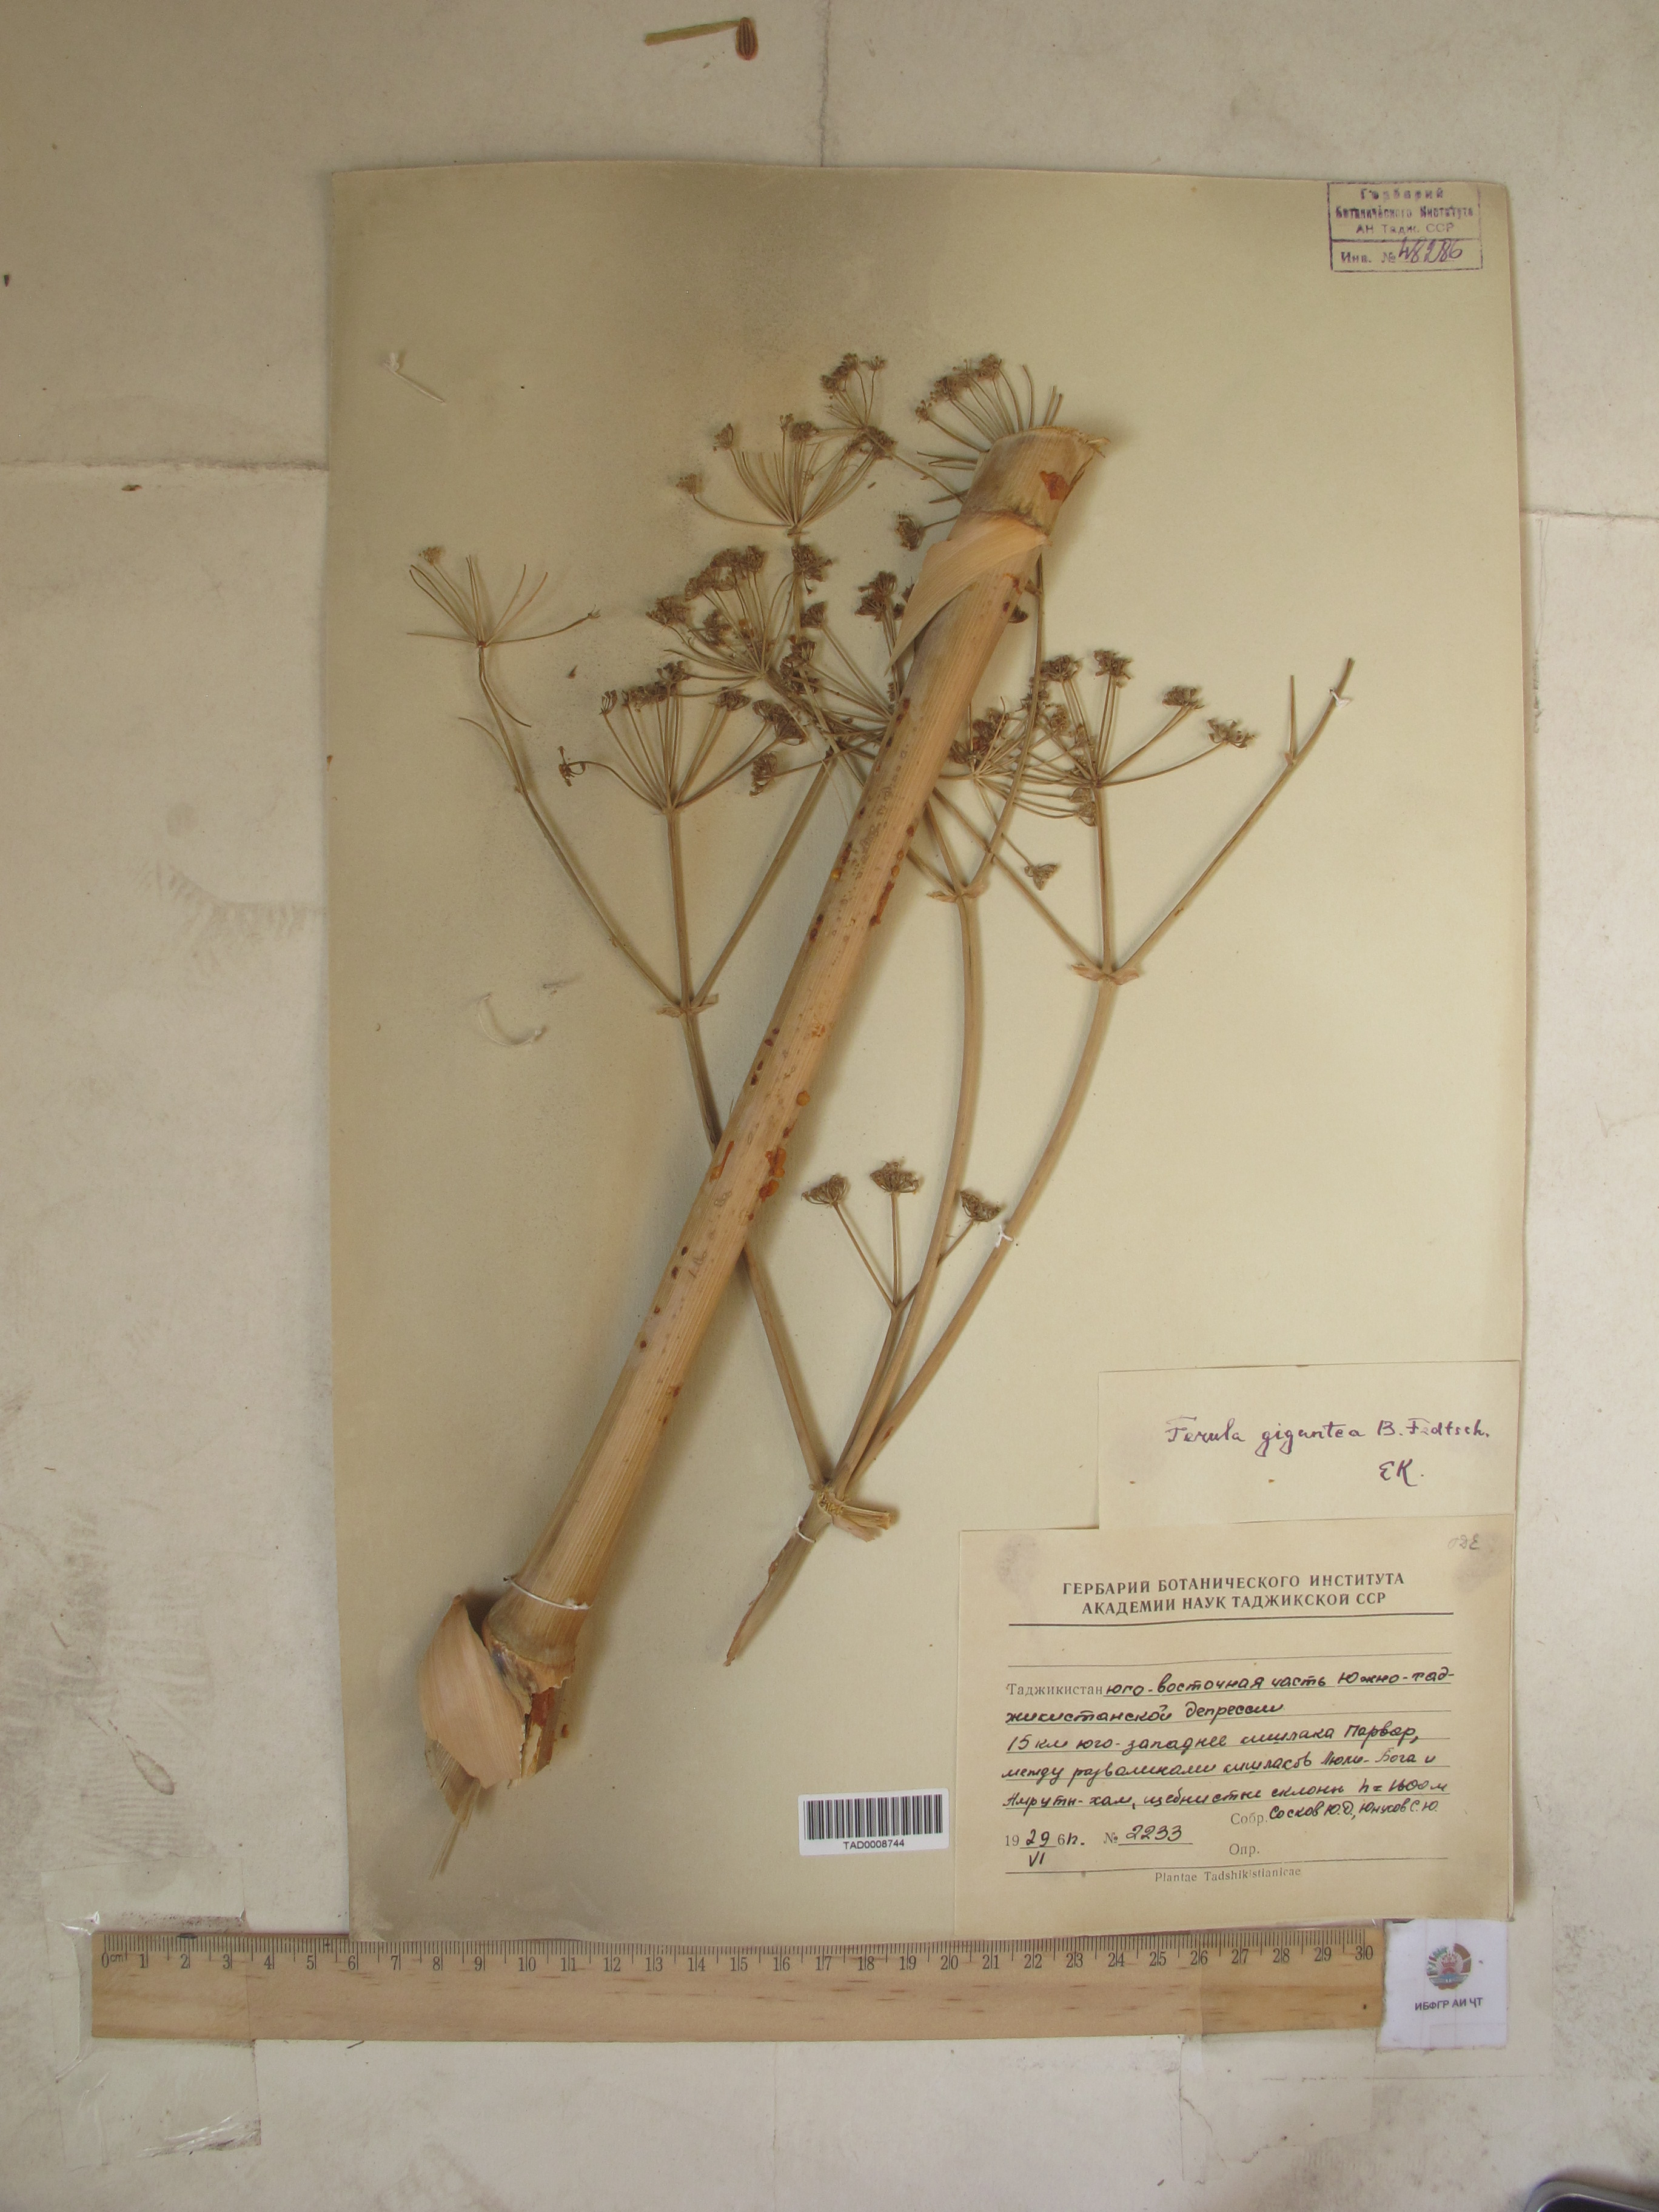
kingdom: Plantae
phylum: Tracheophyta
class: Magnoliopsida
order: Apiales
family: Apiaceae
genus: Ferula
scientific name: Ferula gigantea
